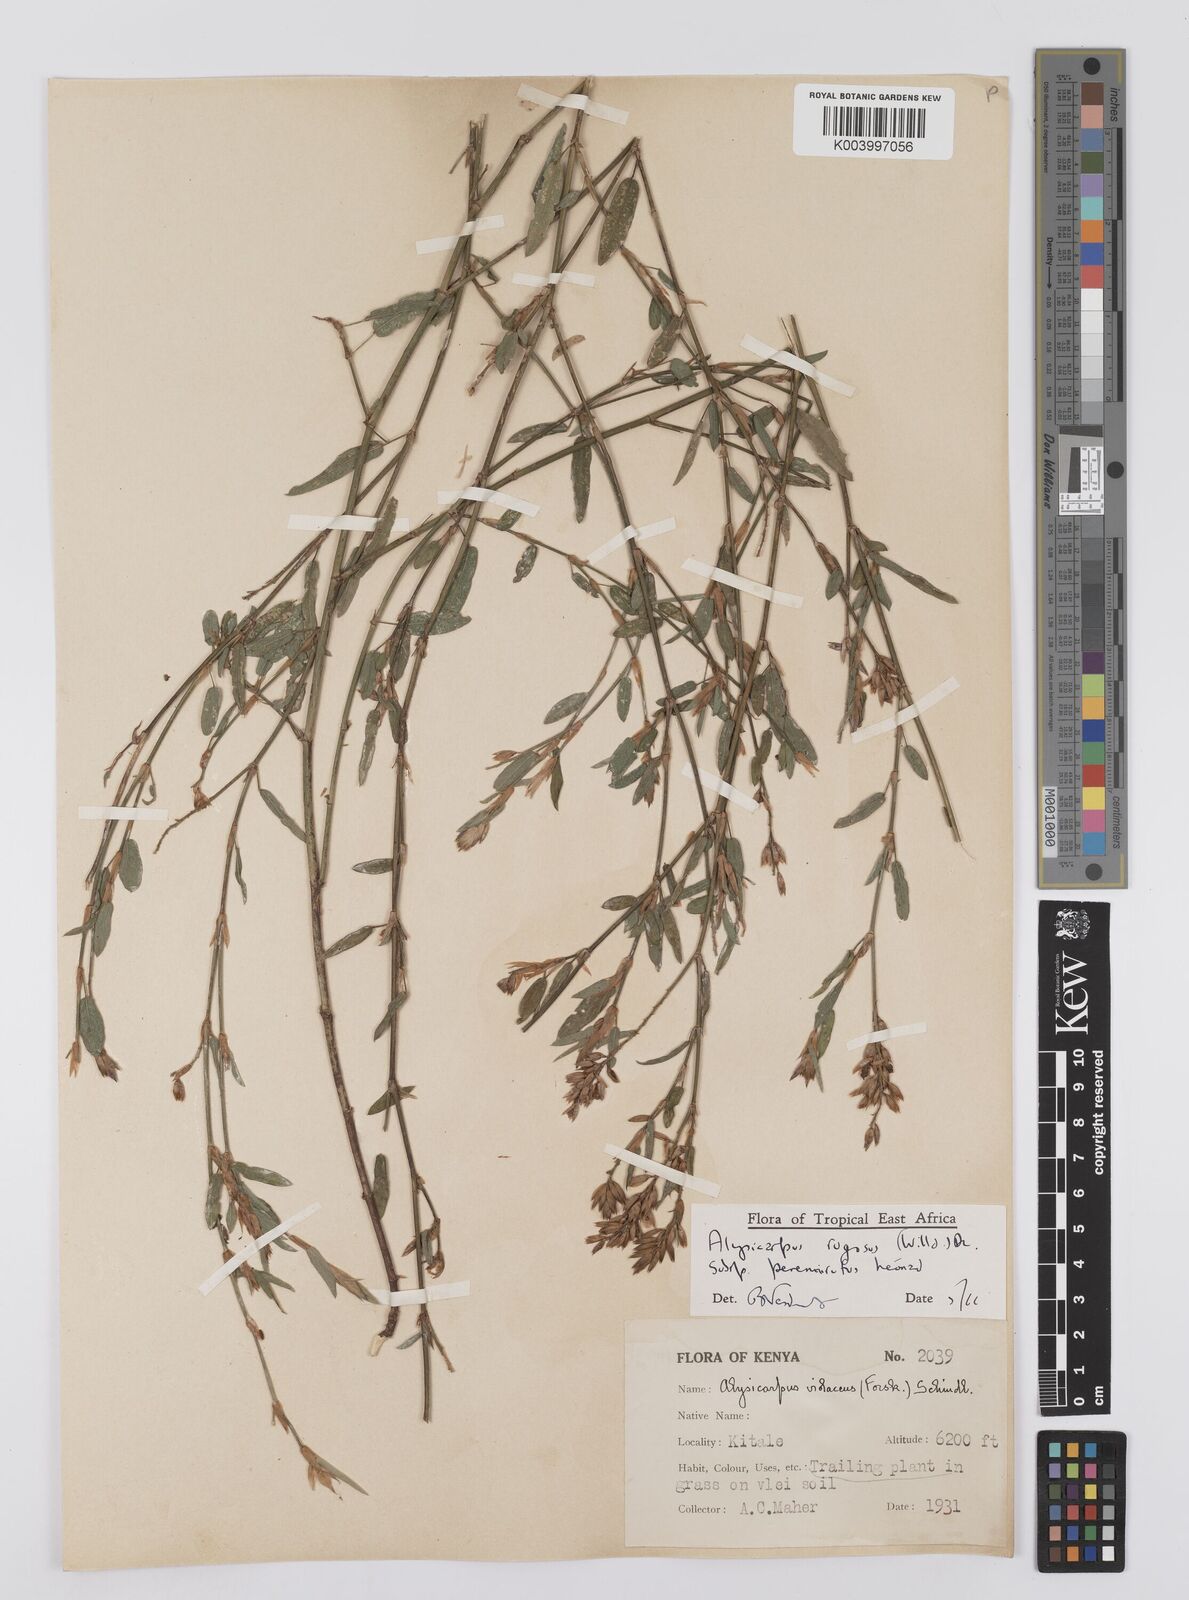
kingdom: Plantae
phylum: Tracheophyta
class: Magnoliopsida
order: Fabales
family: Fabaceae
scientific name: Fabaceae
